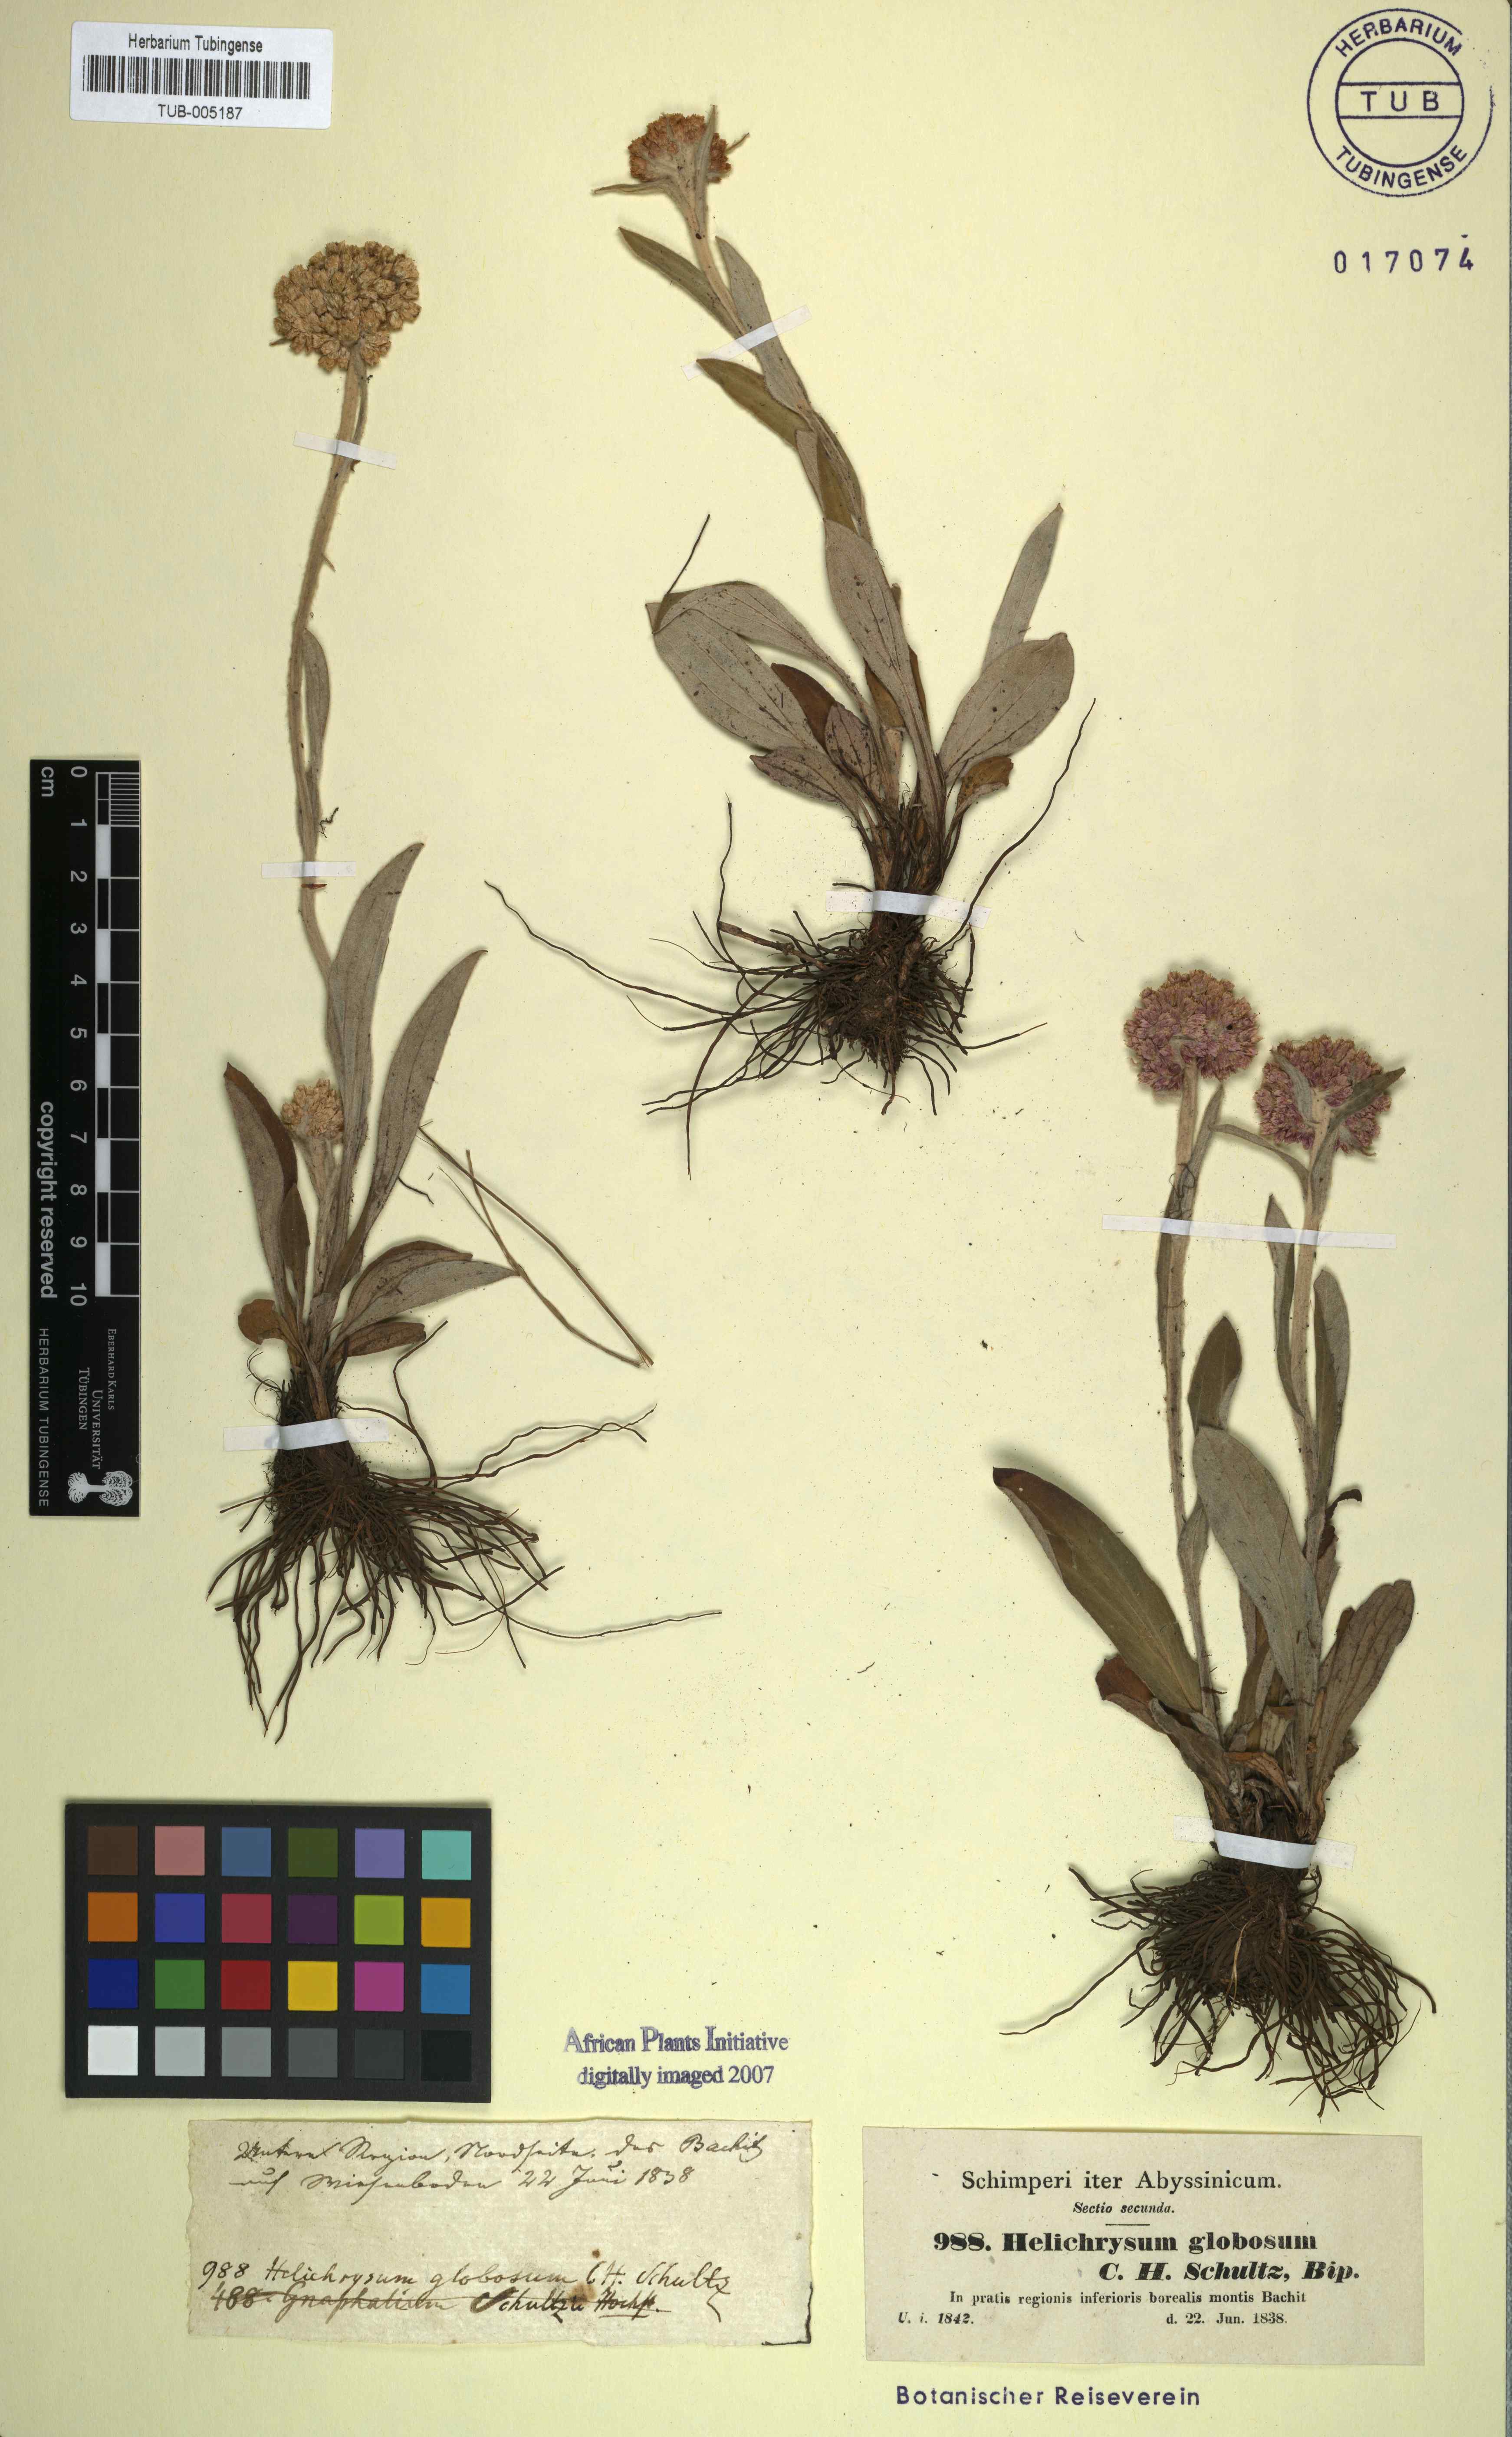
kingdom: Plantae
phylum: Tracheophyta
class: Magnoliopsida
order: Asterales
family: Asteraceae
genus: Helichrysum
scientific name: Helichrysum globosum
